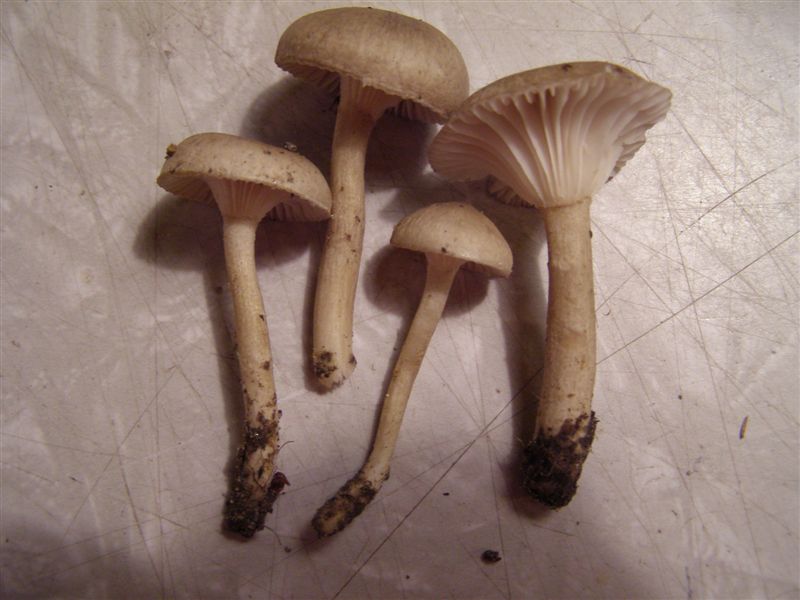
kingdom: Fungi
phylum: Basidiomycota
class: Agaricomycetes
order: Agaricales
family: Hygrophoraceae
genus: Hygrophorus
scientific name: Hygrophorus pustulatus
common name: mørkprikket sneglehat
